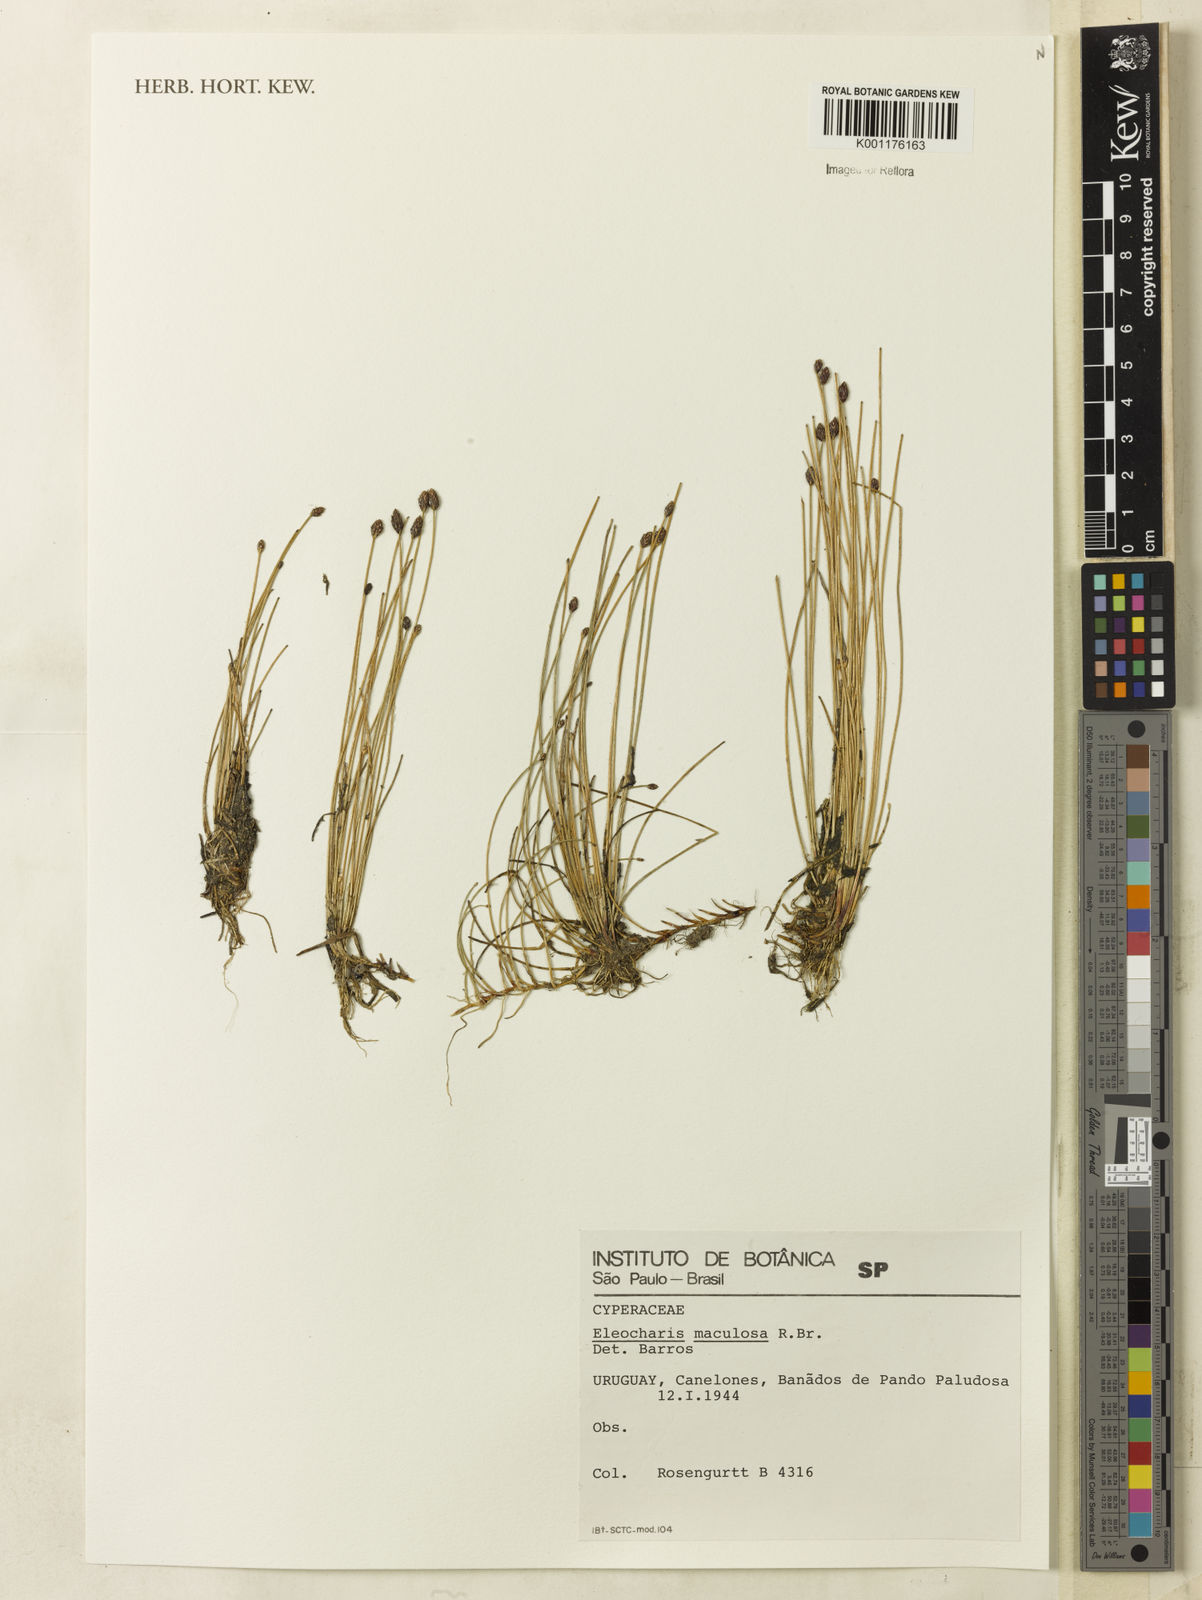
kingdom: Plantae
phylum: Tracheophyta
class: Liliopsida
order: Poales
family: Cyperaceae
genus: Eleocharis
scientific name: Eleocharis maculosa
